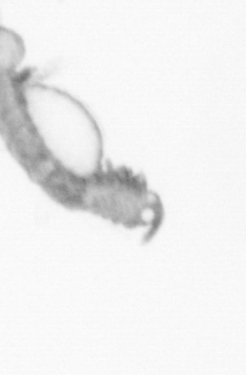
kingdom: Animalia
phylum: Annelida
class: Polychaeta
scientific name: Polychaeta
